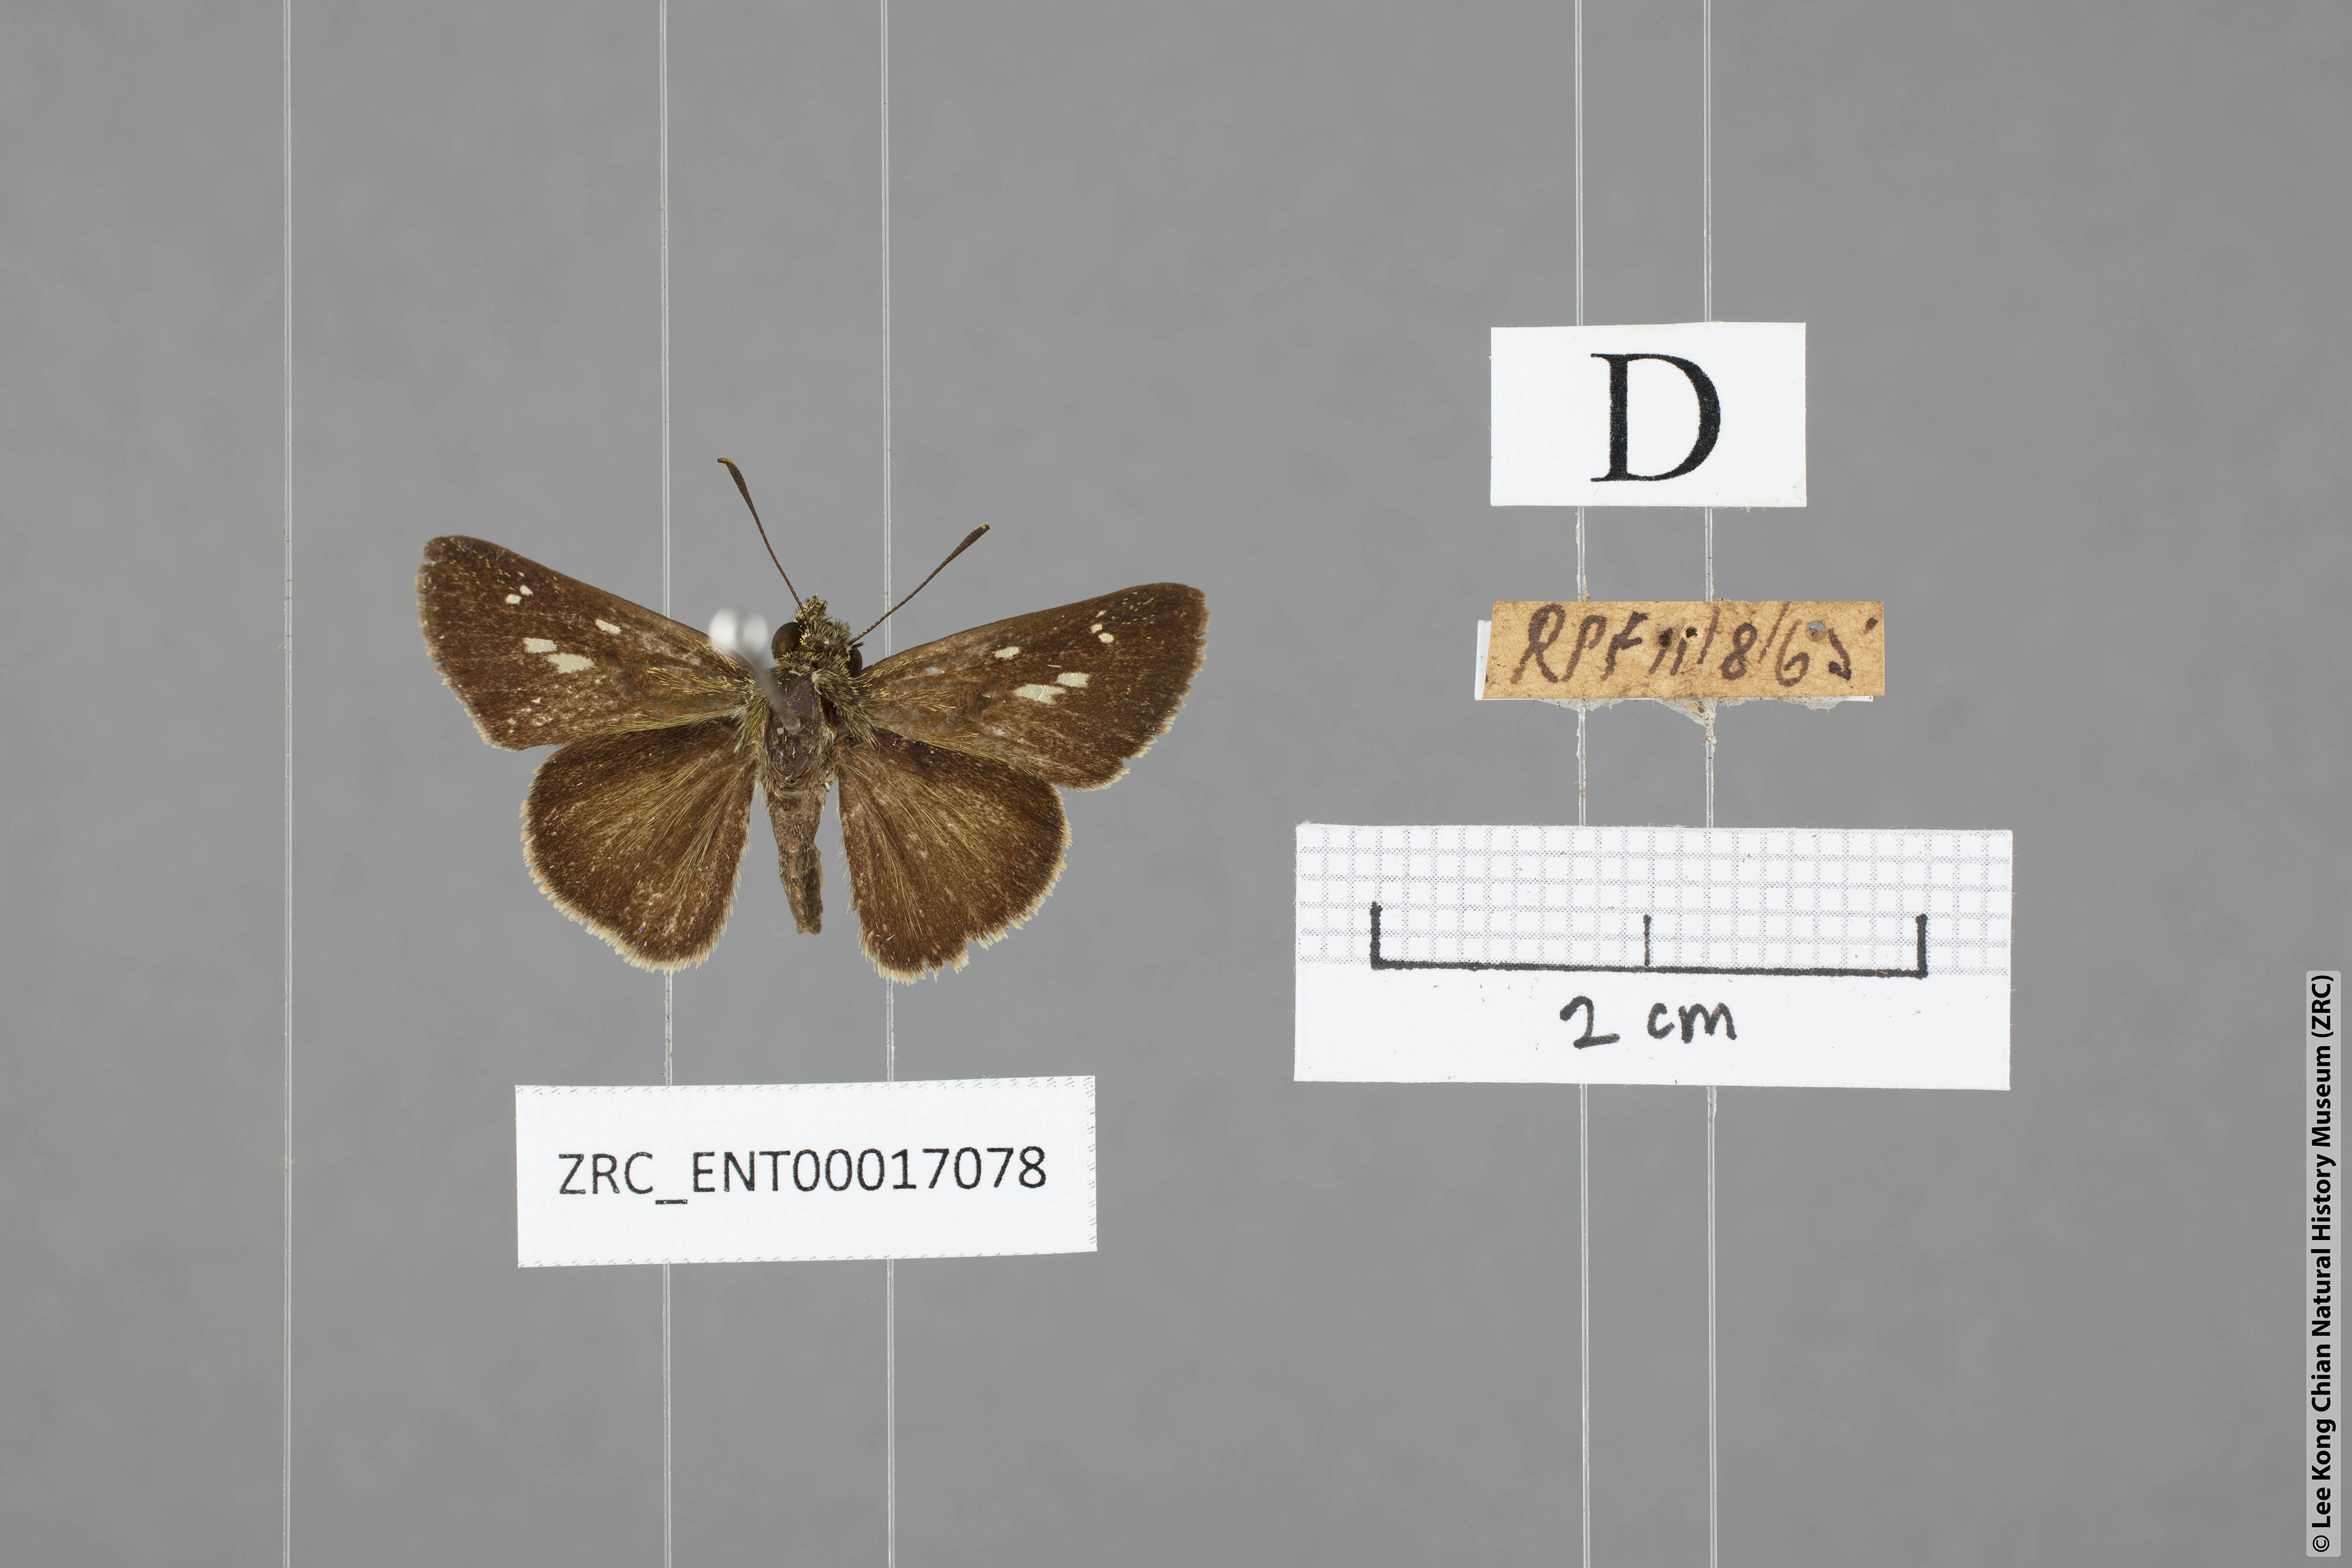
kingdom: Animalia
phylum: Arthropoda
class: Insecta
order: Lepidoptera
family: Hesperiidae
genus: Halpe
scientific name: Halpe veluvana
